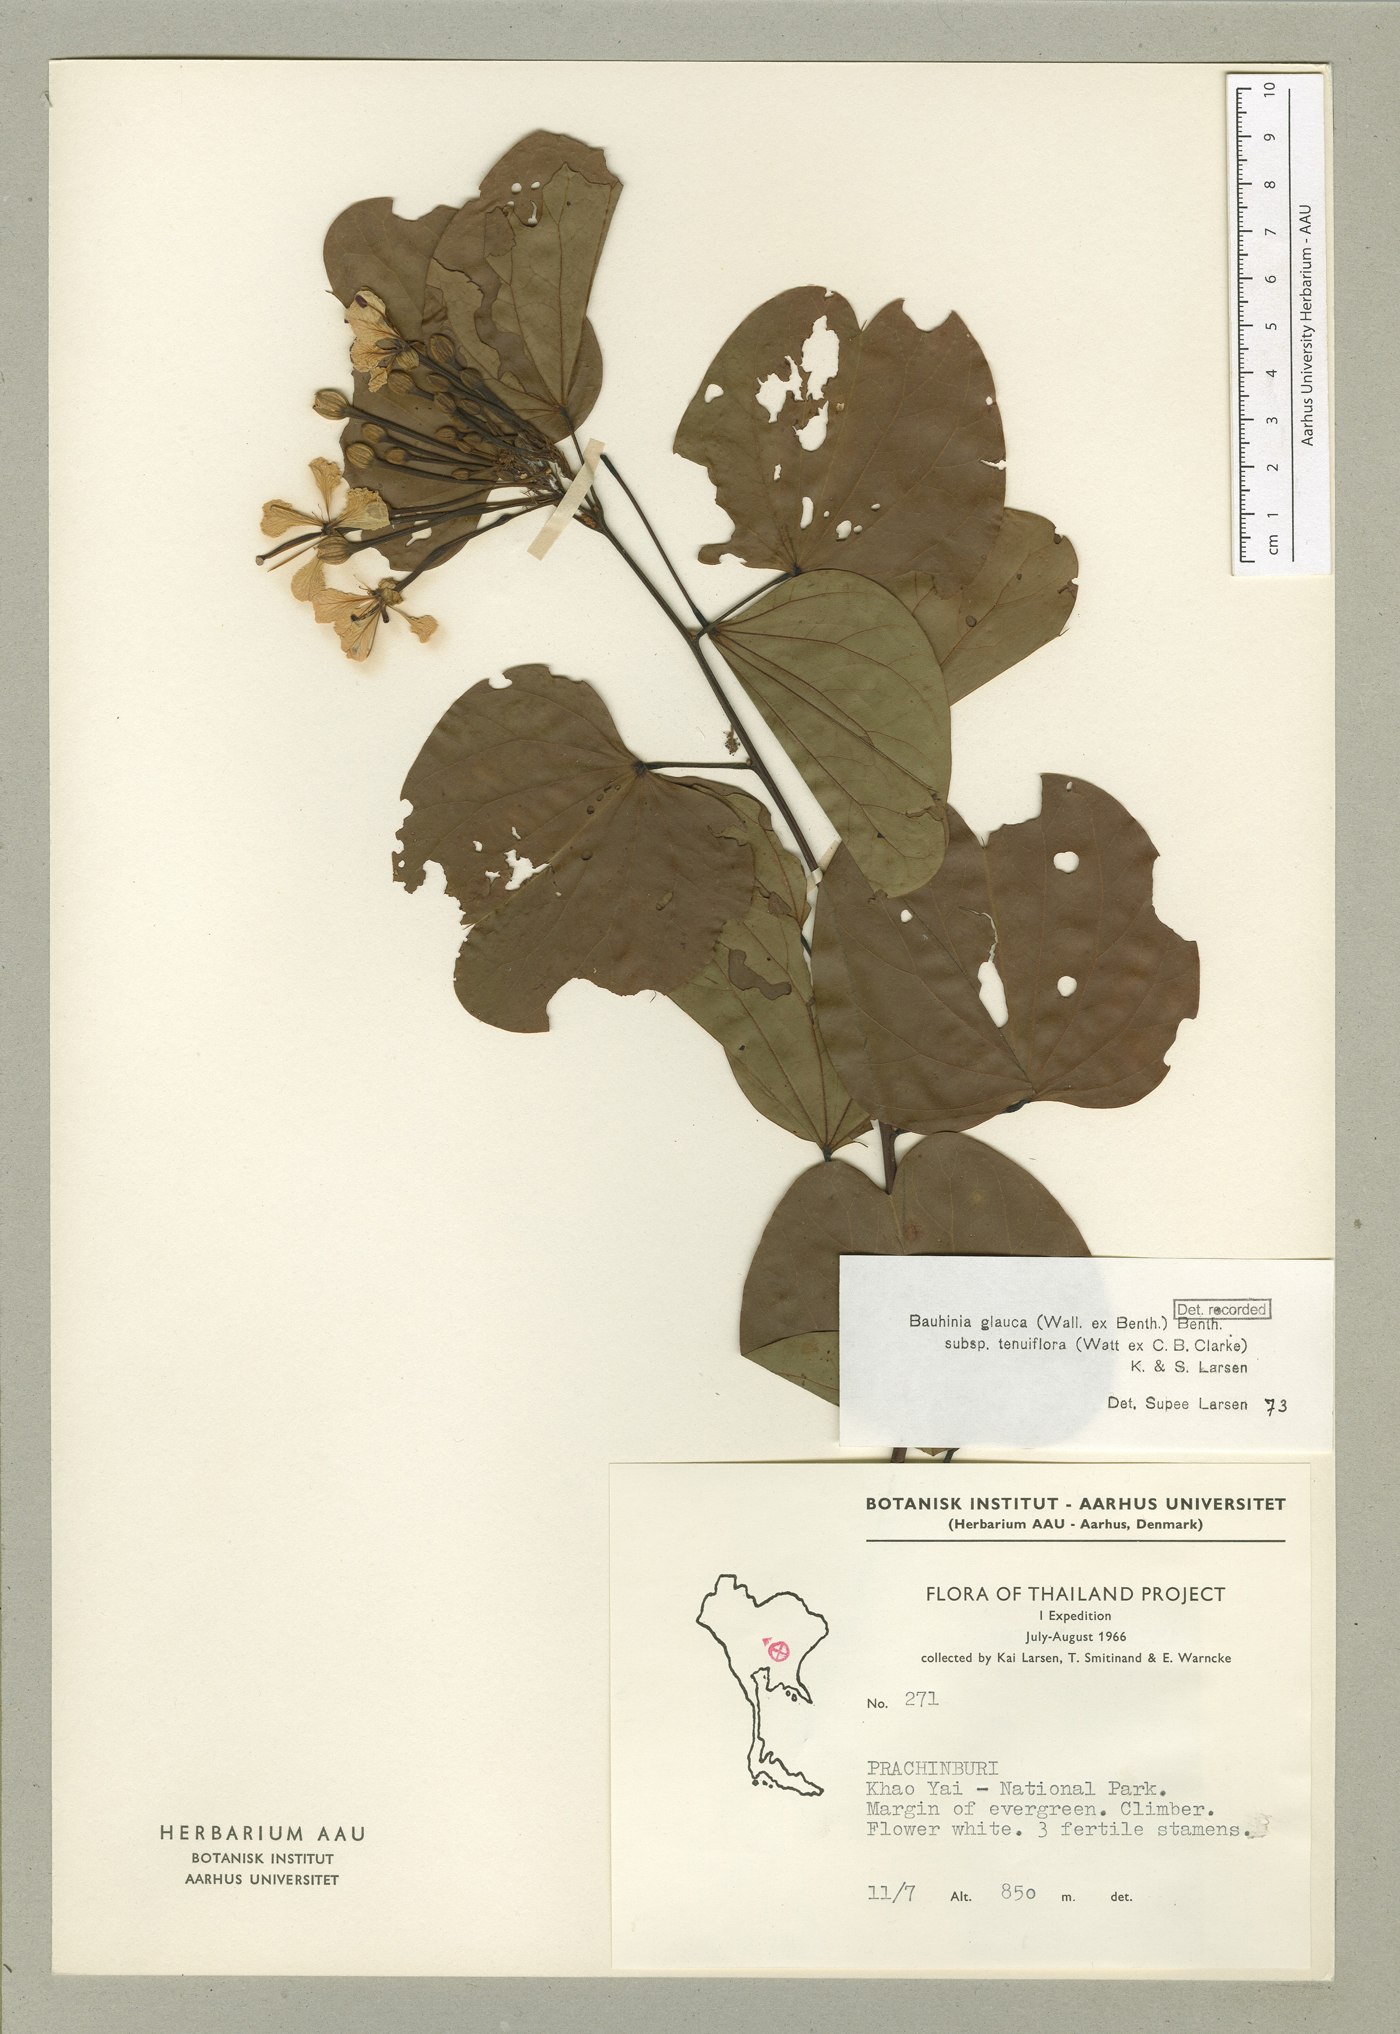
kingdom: Plantae
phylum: Tracheophyta
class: Magnoliopsida
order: Fabales
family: Fabaceae
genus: Bauhinia
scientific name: Bauhinia
